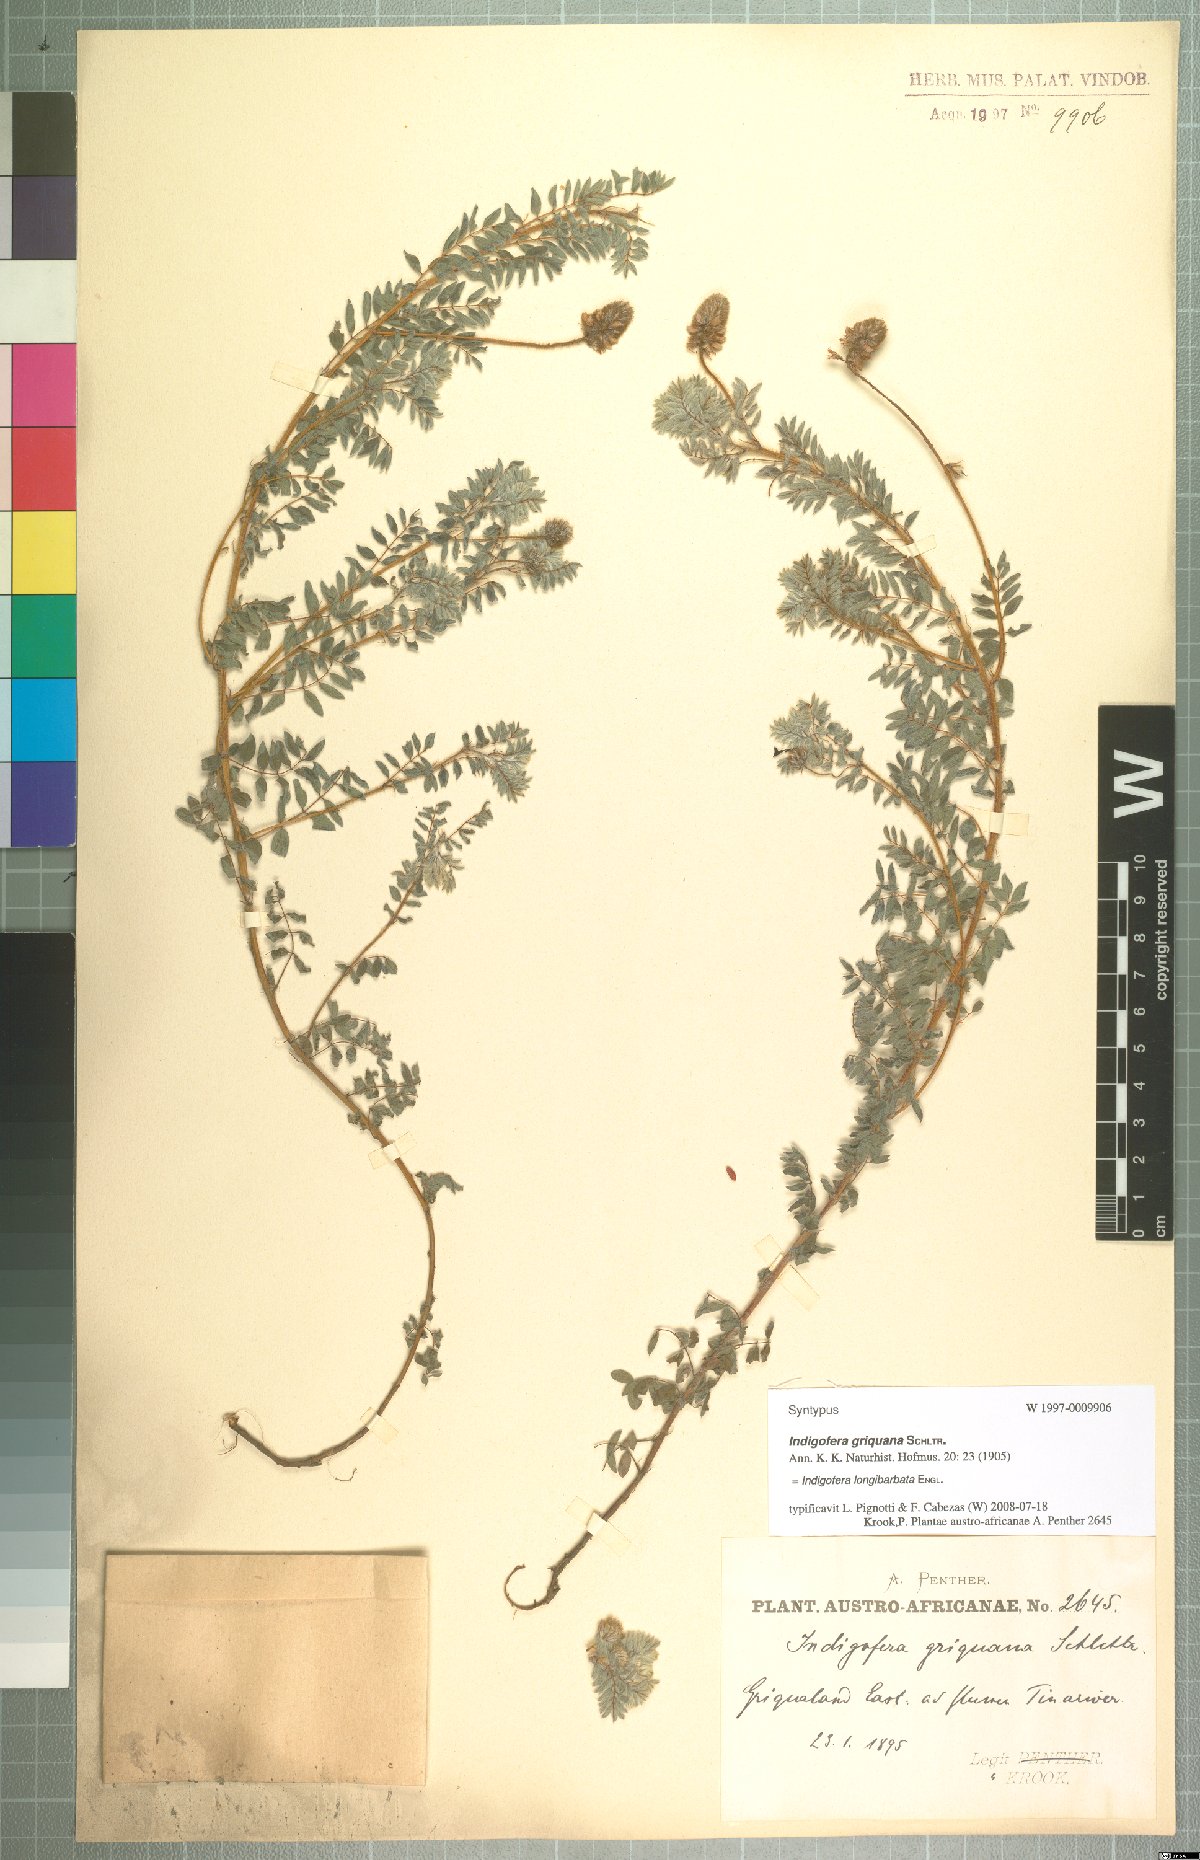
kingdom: Plantae
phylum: Tracheophyta
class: Magnoliopsida
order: Fabales
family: Fabaceae
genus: Indigofera
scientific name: Indigofera longibarbata
